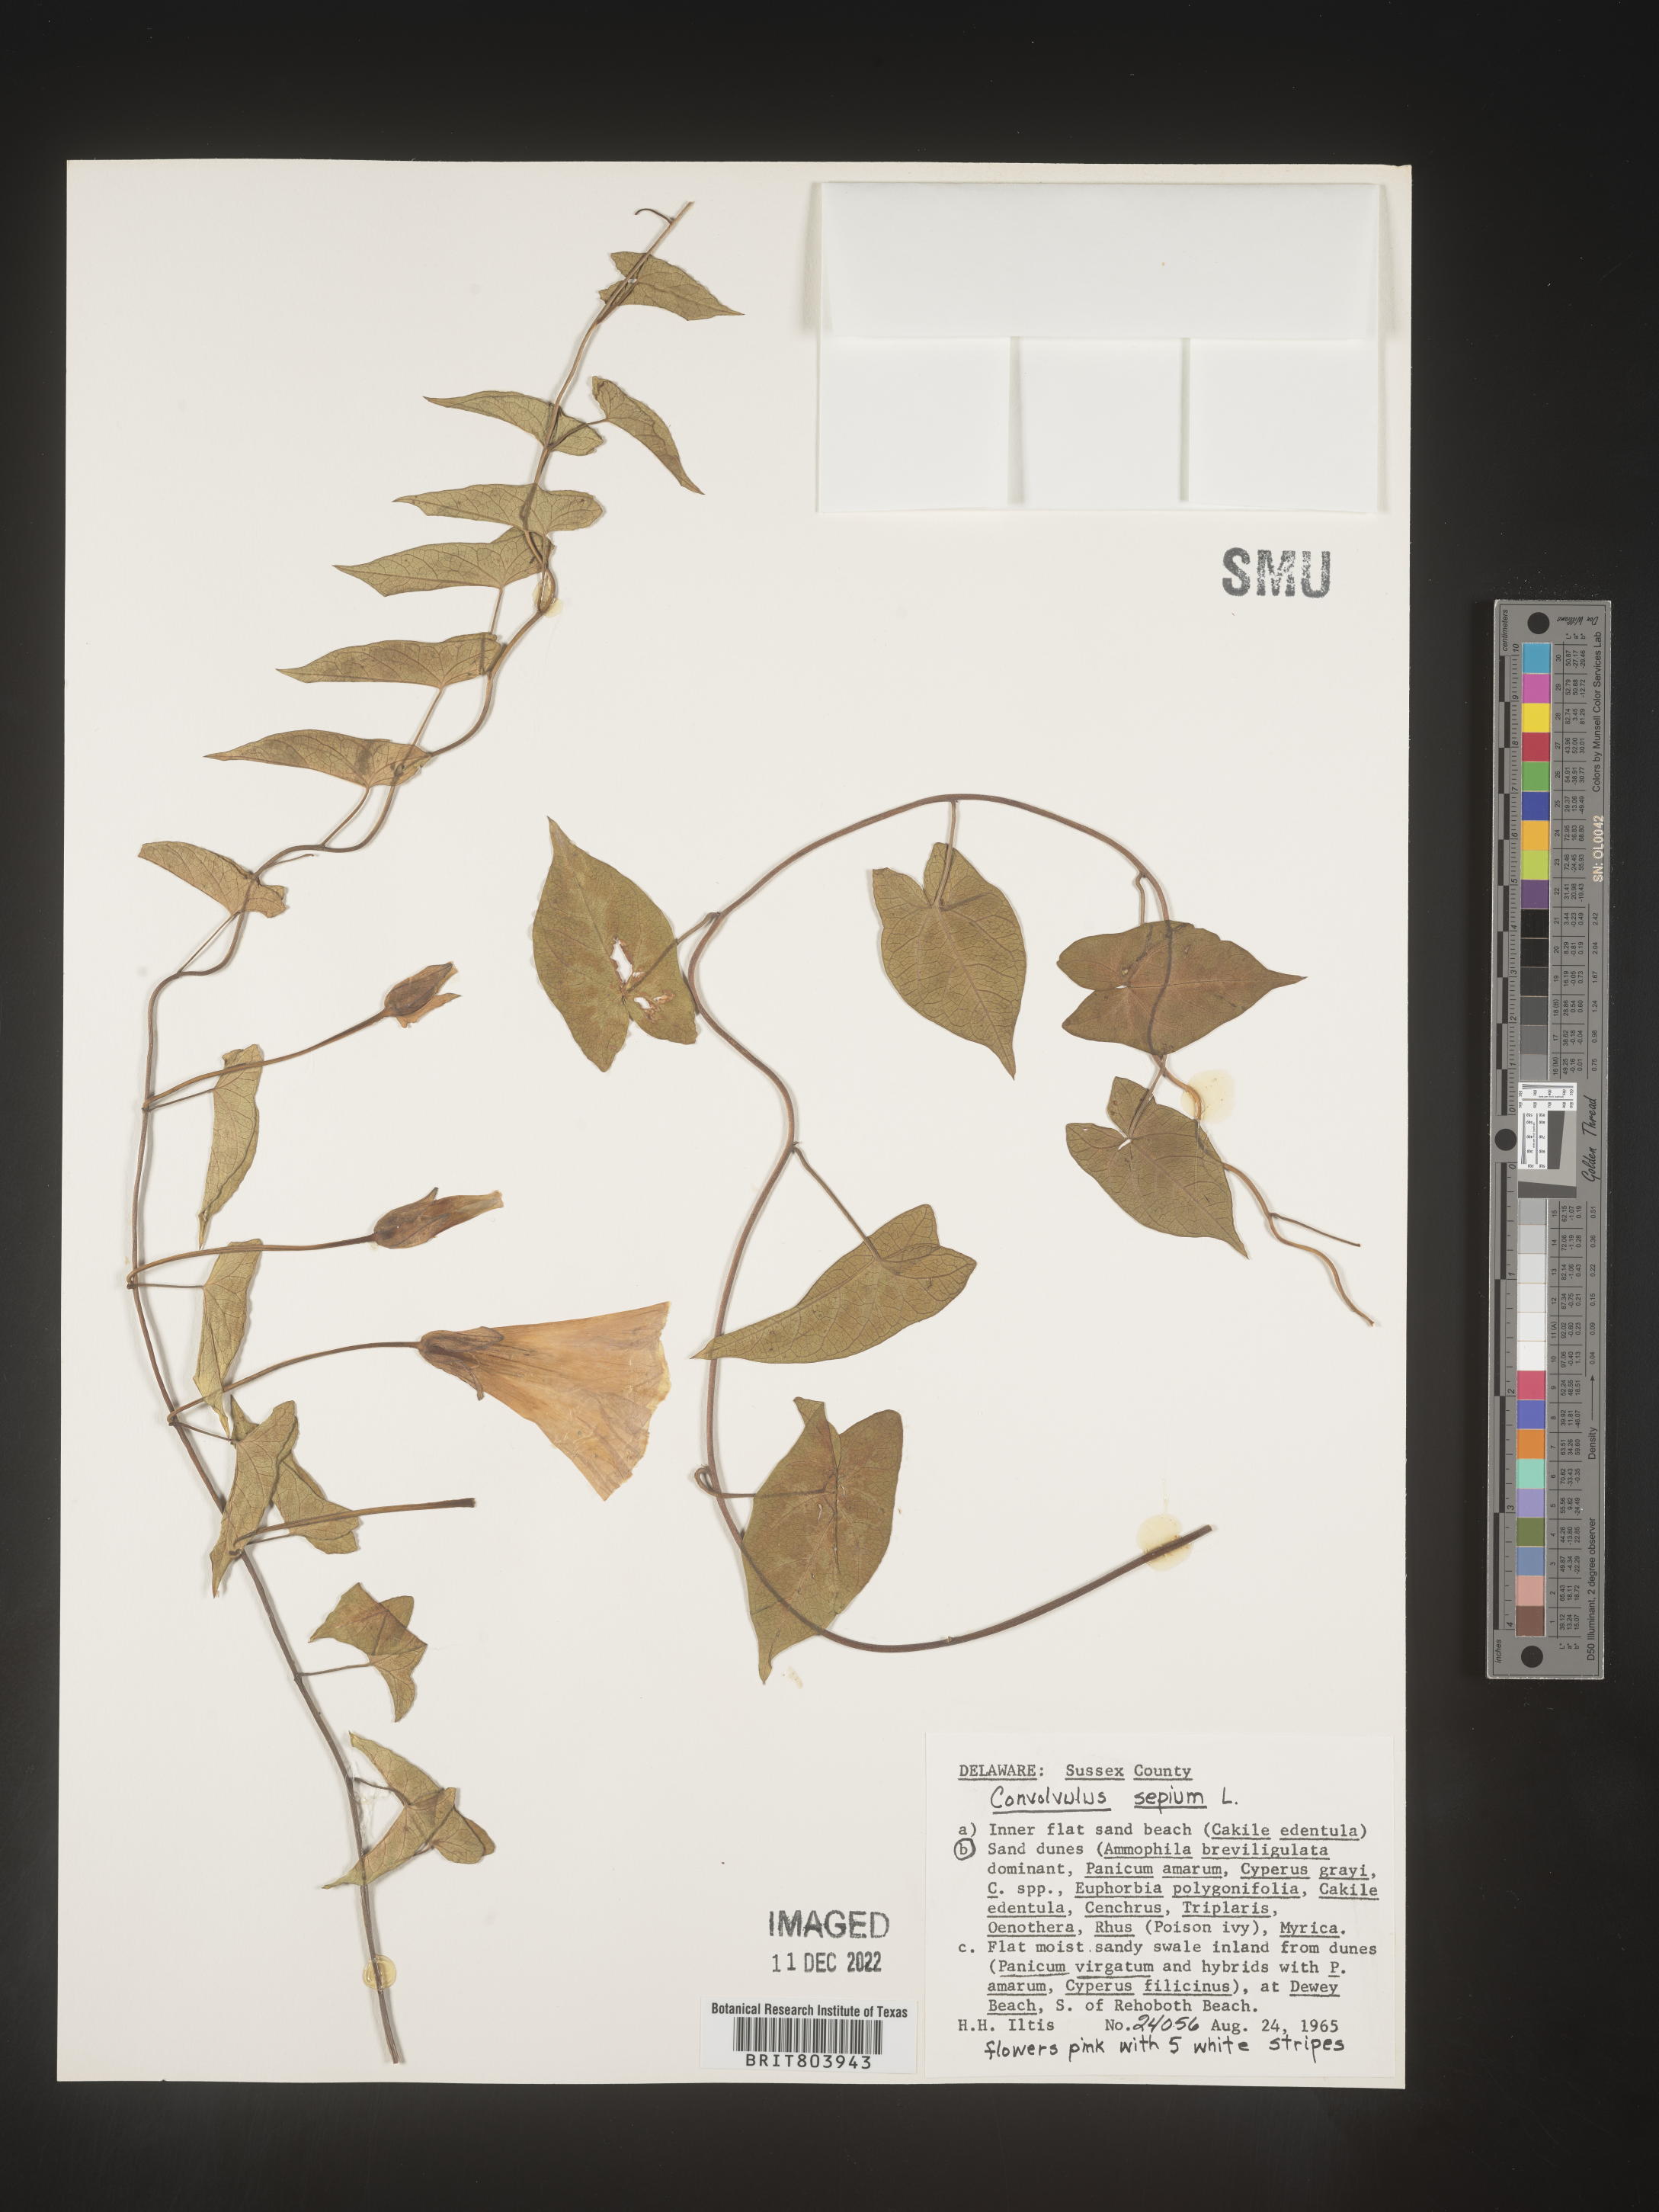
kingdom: Plantae
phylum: Tracheophyta
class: Magnoliopsida
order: Solanales
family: Convolvulaceae
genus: Calystegia
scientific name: Calystegia sepium
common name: Hedge bindweed
